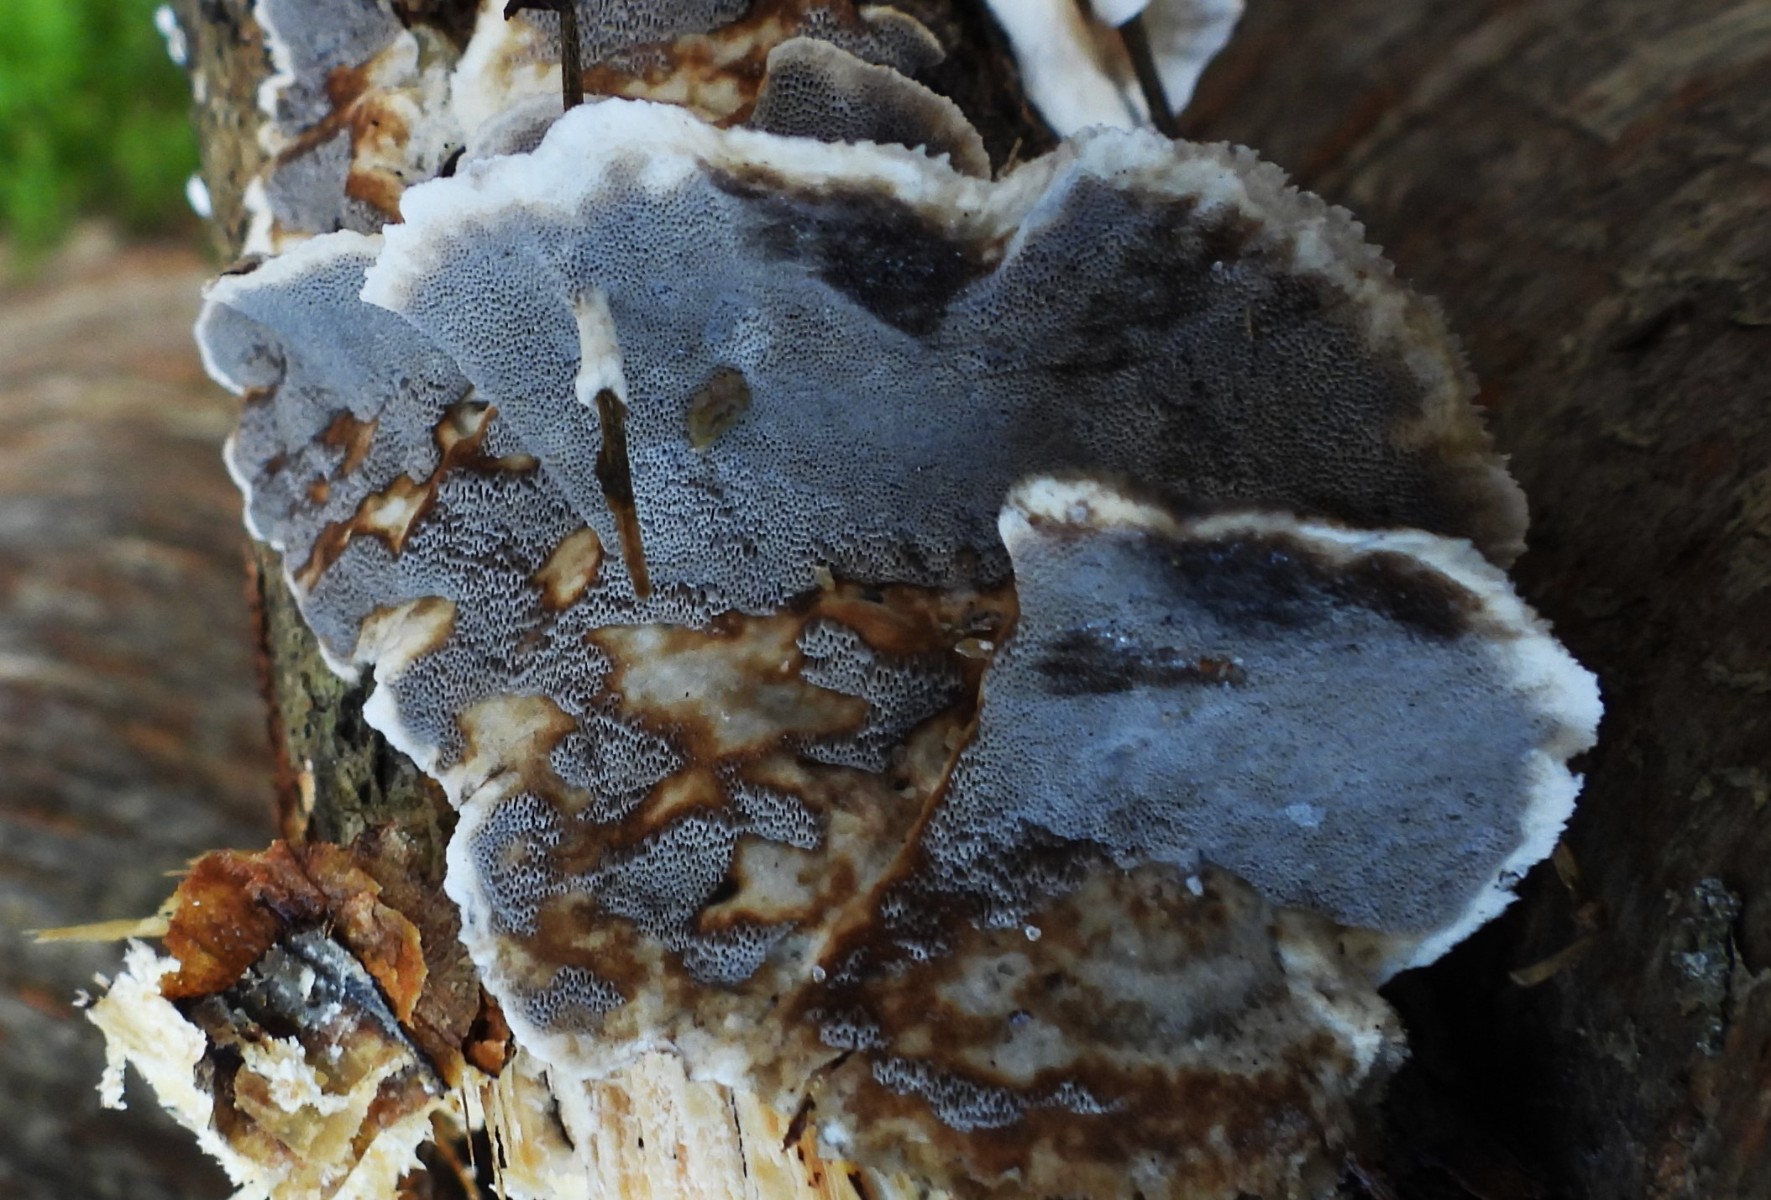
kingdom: Fungi
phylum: Basidiomycota
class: Agaricomycetes
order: Polyporales
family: Phanerochaetaceae
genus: Bjerkandera
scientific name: Bjerkandera adusta
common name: sveden sodporesvamp
